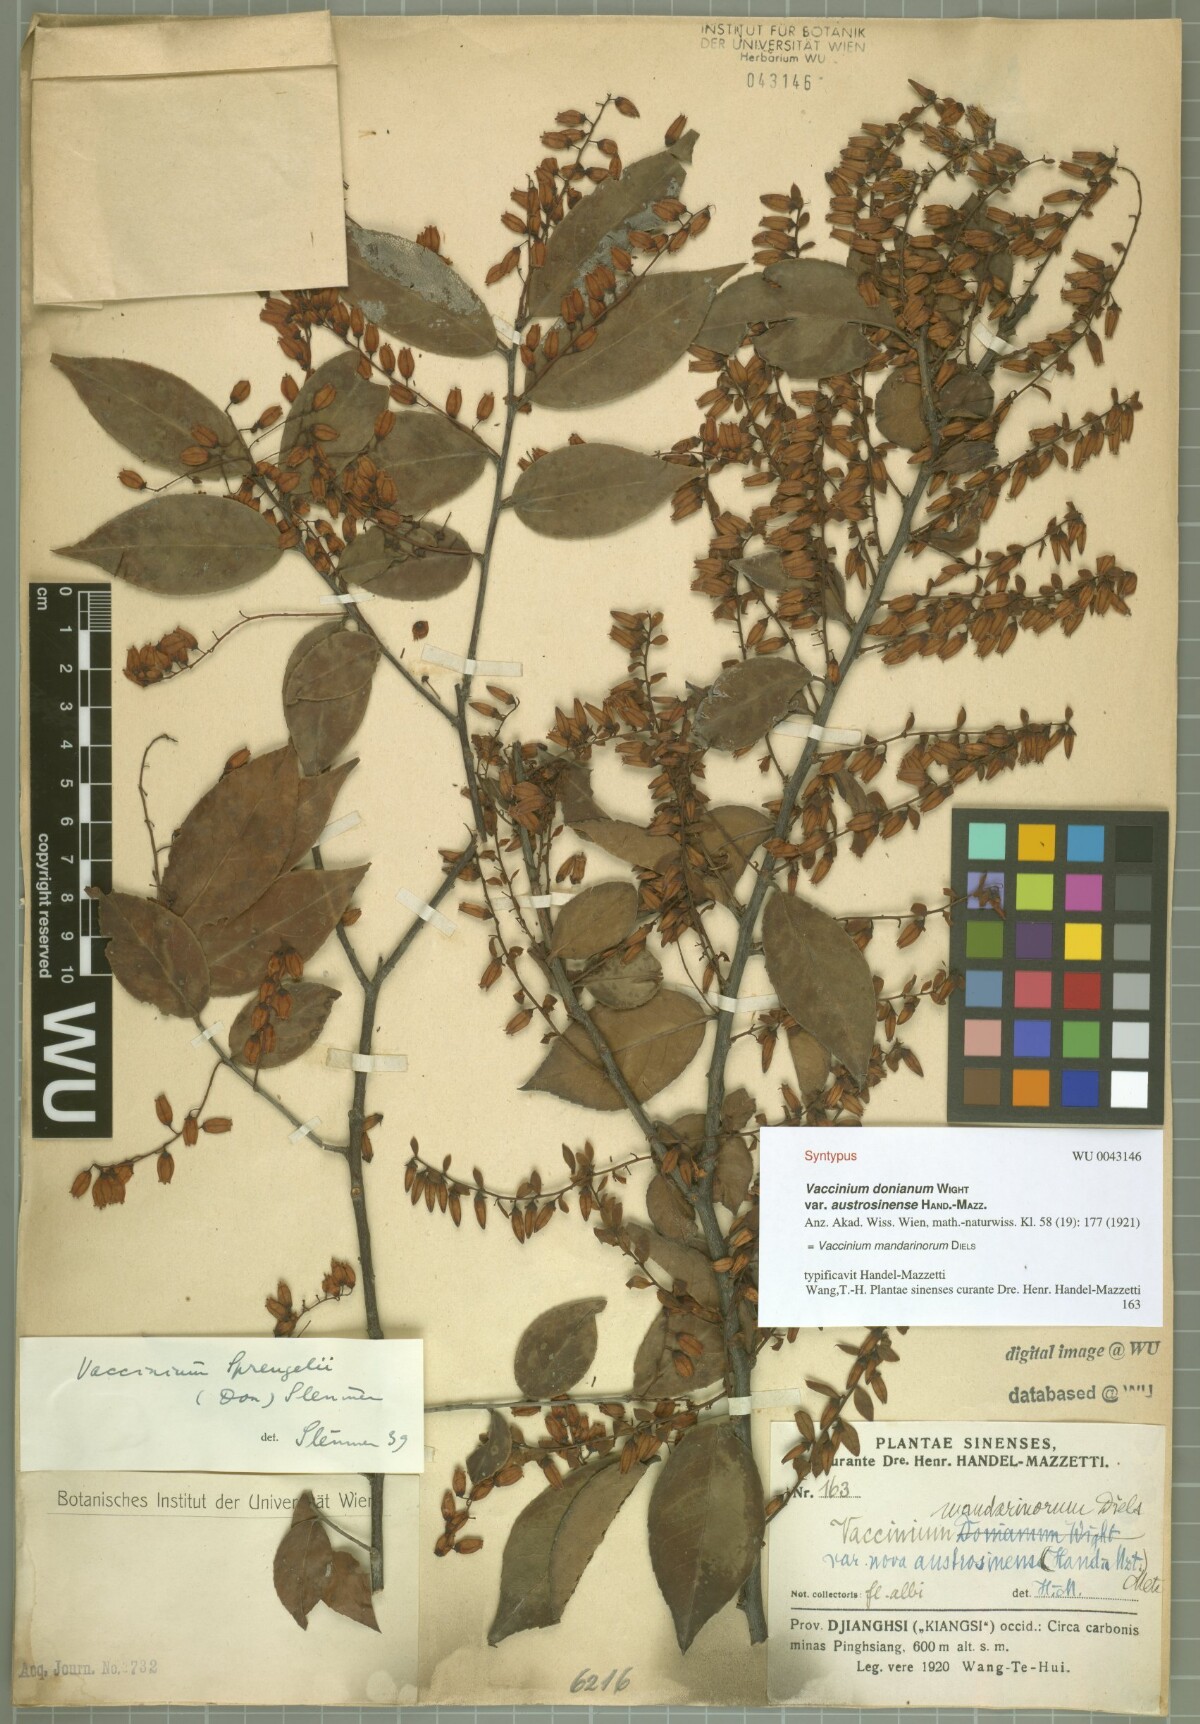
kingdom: Plantae
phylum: Tracheophyta
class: Magnoliopsida
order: Ericales
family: Ericaceae
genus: Vaccinium
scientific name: Vaccinium mandarinorum
